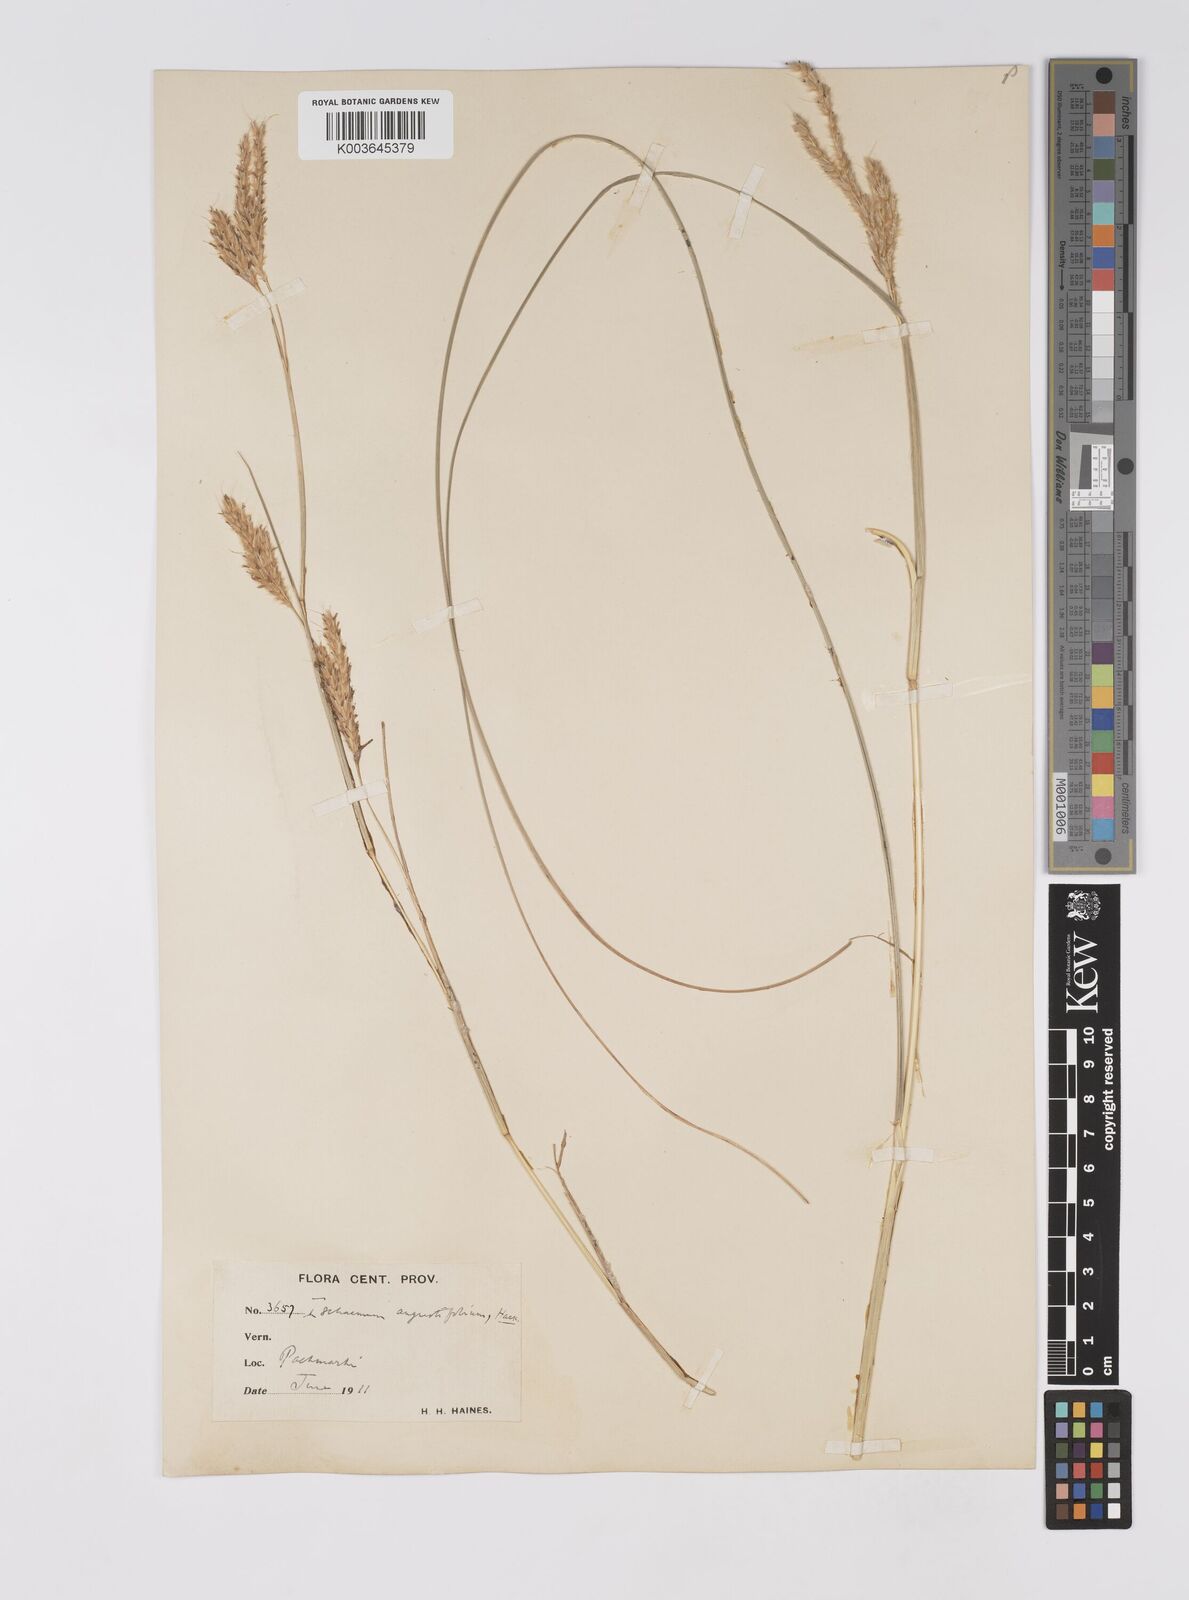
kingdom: Plantae
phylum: Tracheophyta
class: Liliopsida
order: Poales
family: Poaceae
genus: Eulaliopsis
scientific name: Eulaliopsis binata
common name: Baib grass
